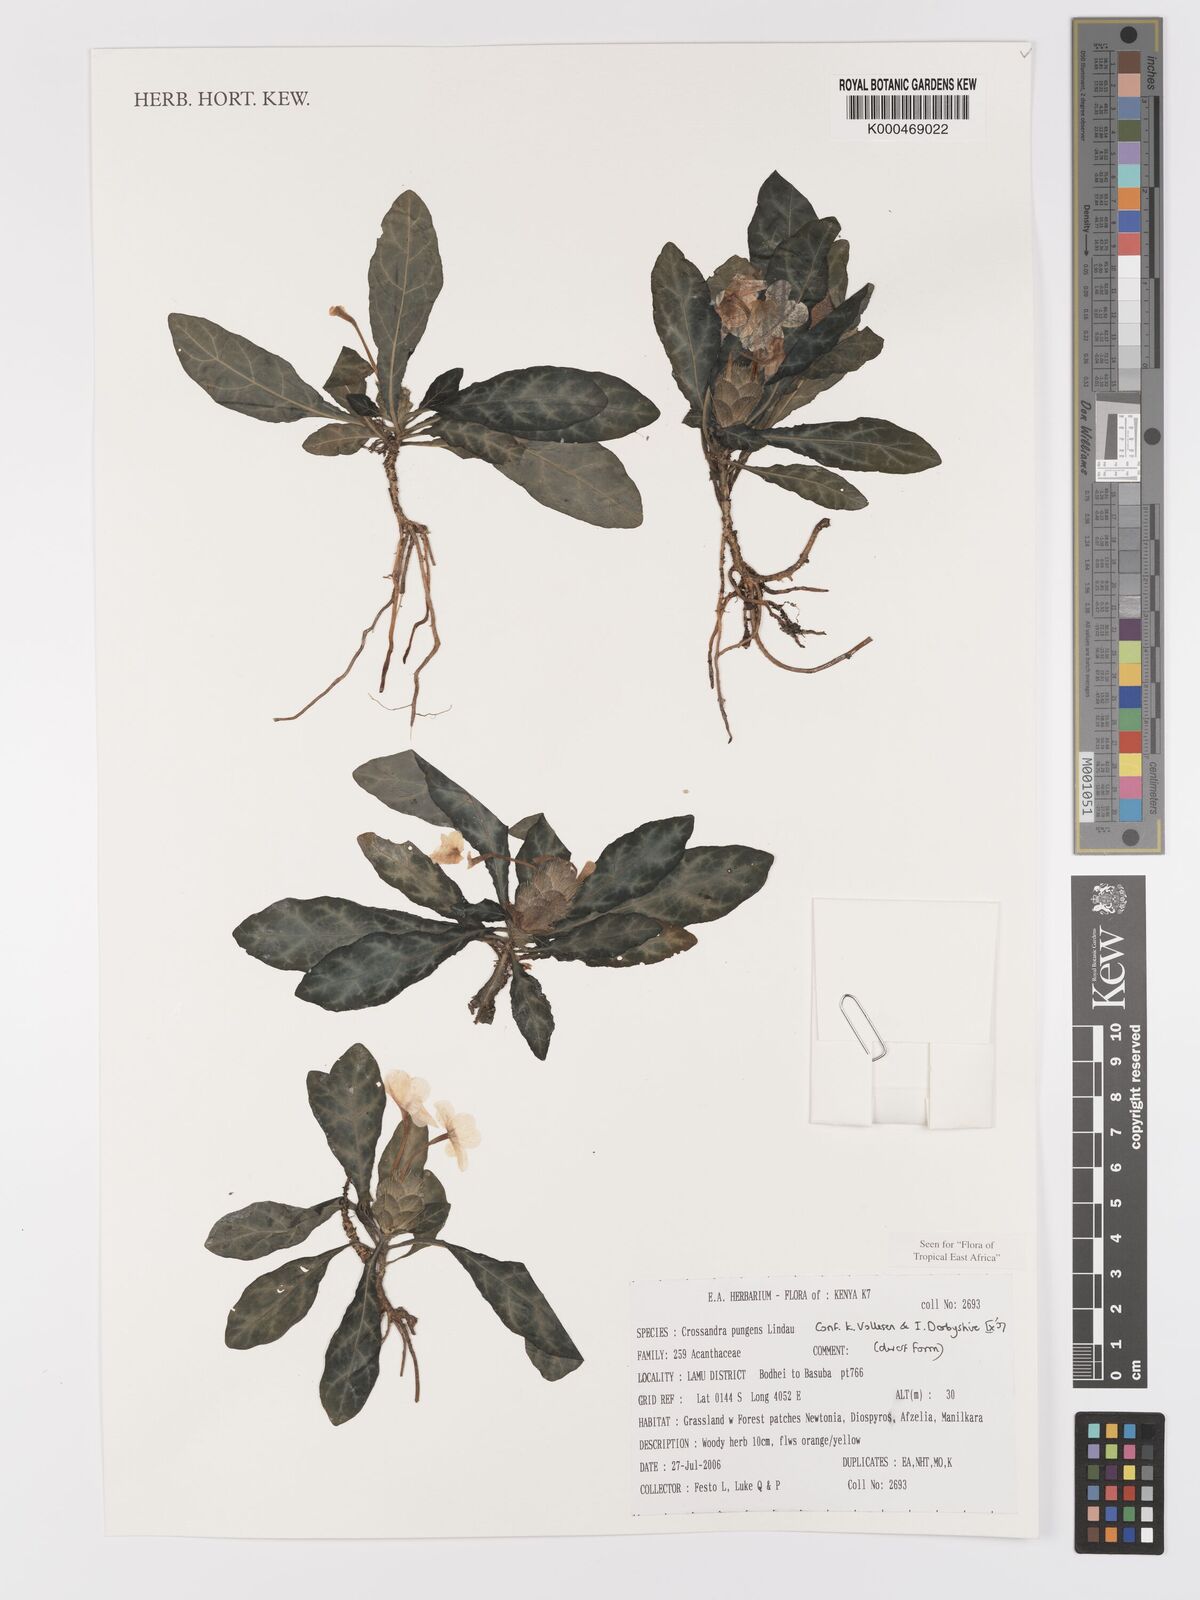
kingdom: Plantae
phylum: Tracheophyta
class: Magnoliopsida
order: Lamiales
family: Acanthaceae
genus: Crossandra
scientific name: Crossandra pungens
